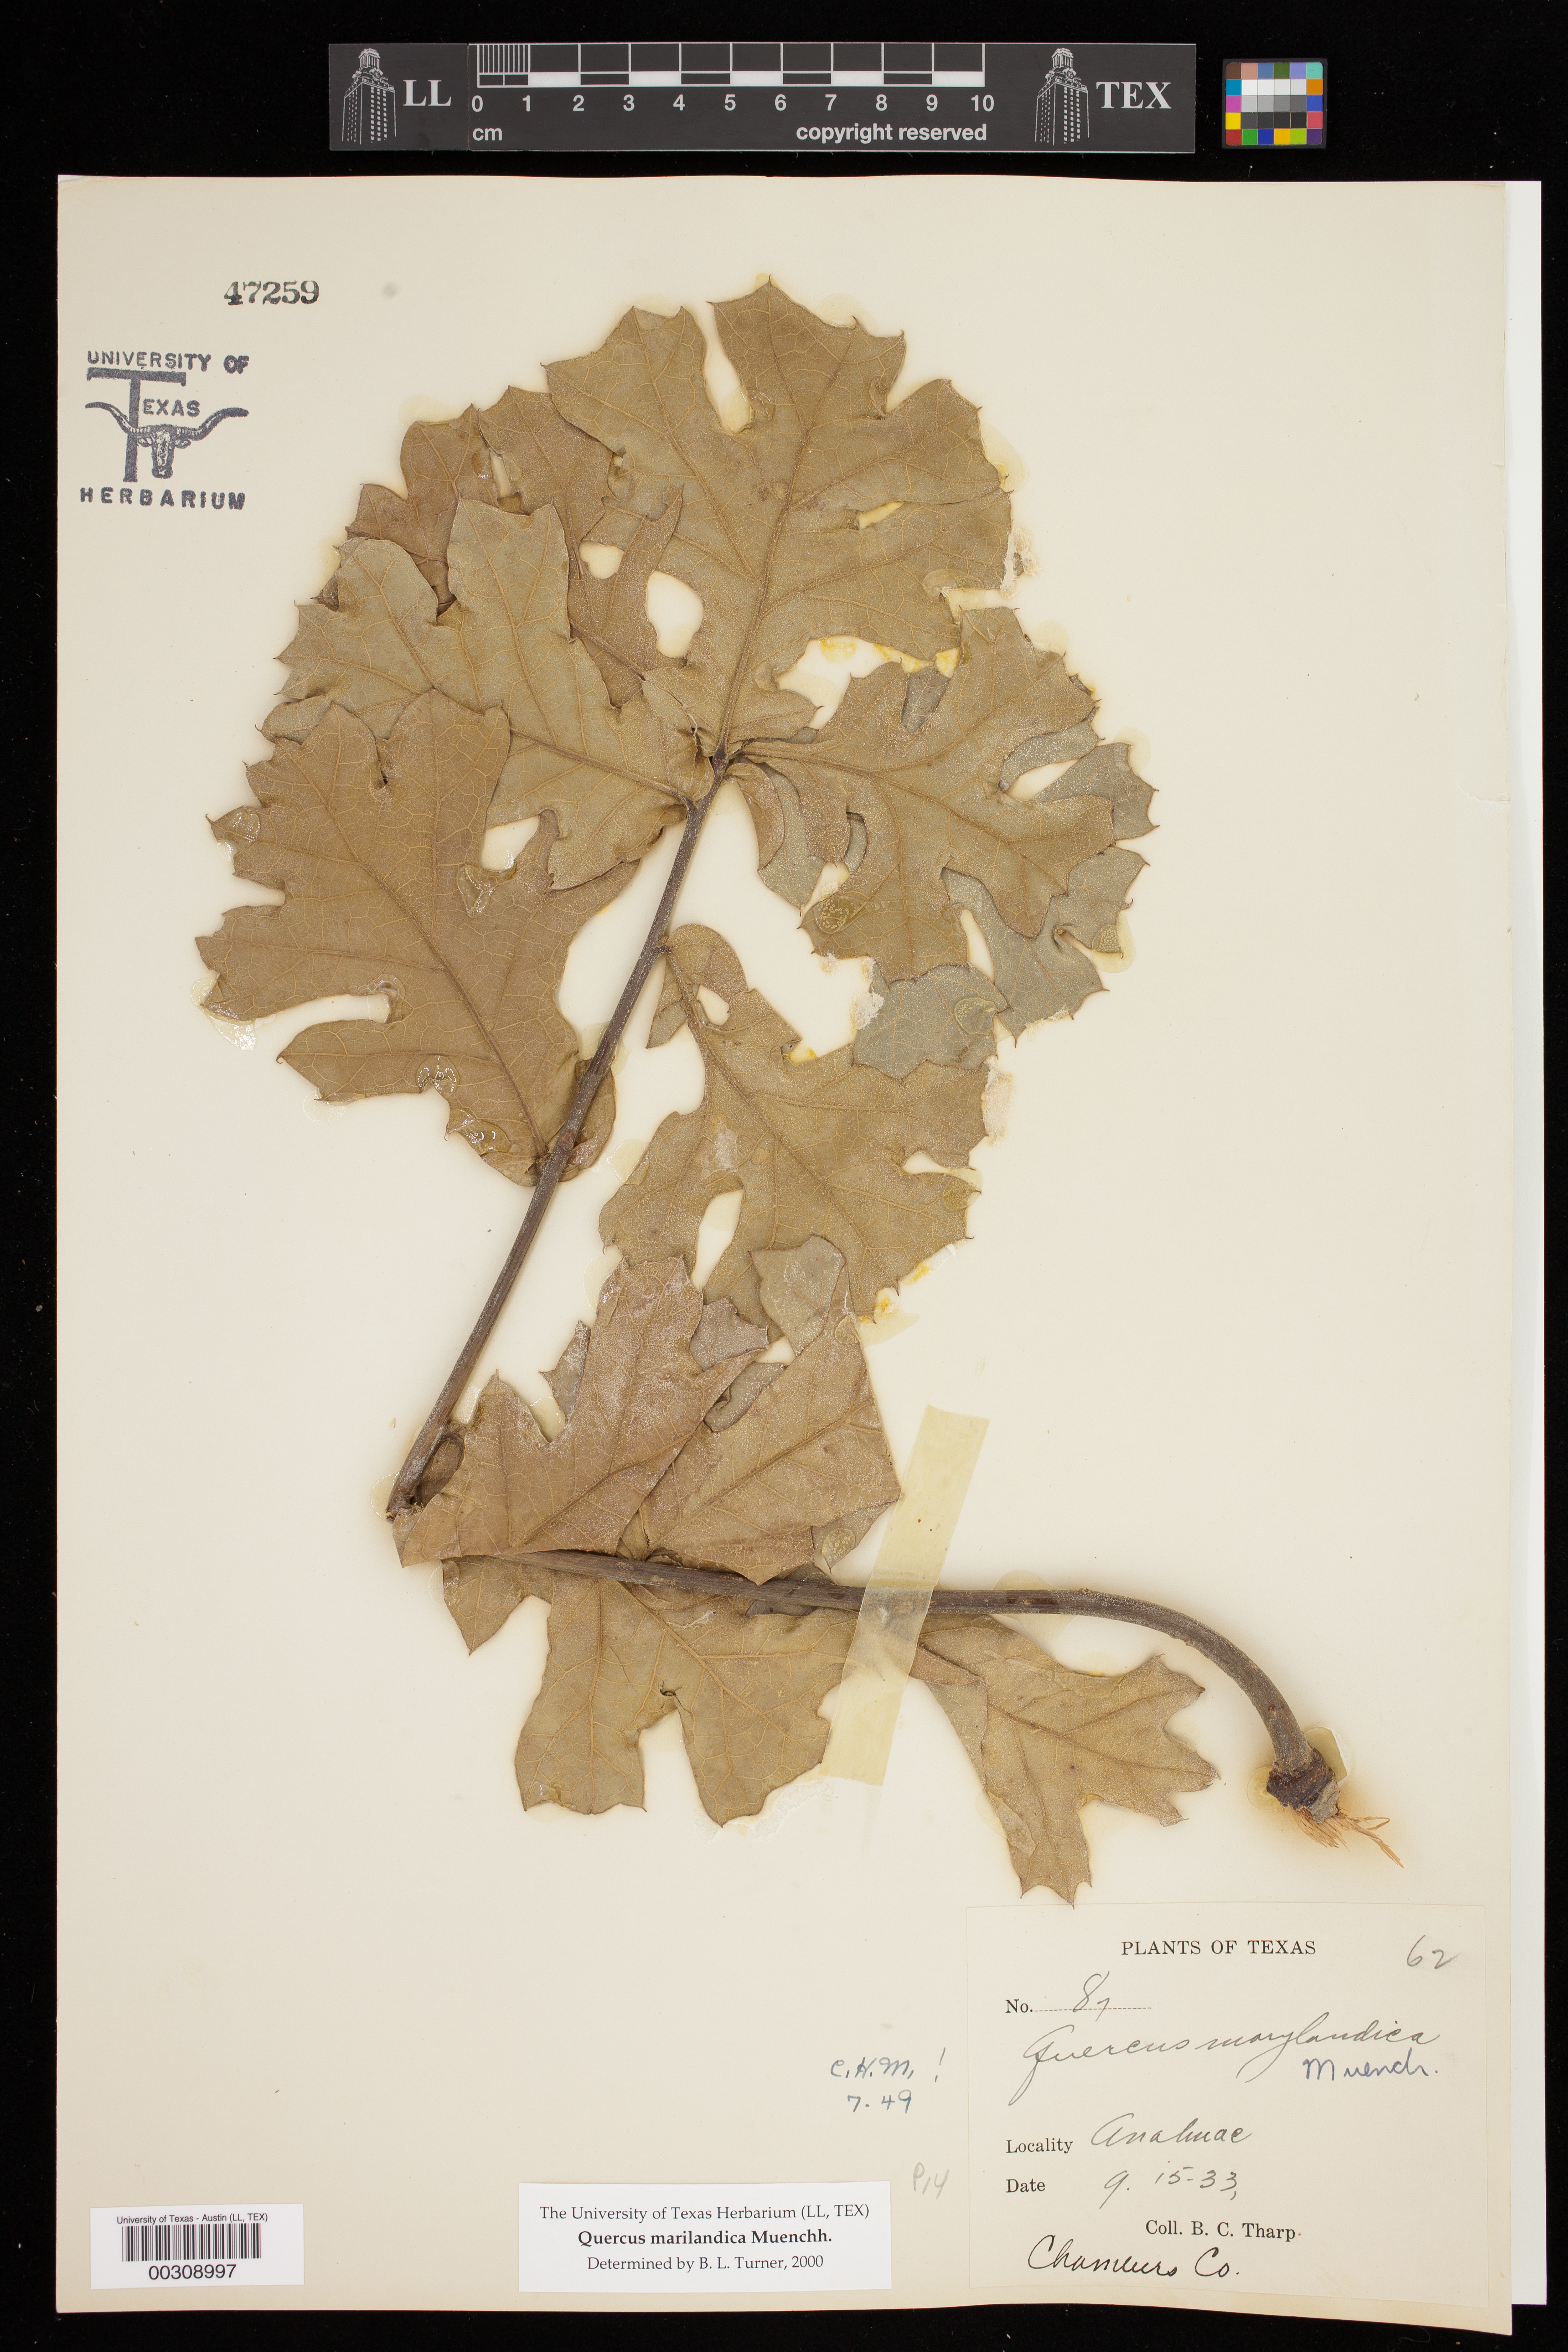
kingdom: Plantae
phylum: Tracheophyta
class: Magnoliopsida
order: Fagales
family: Fagaceae
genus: Quercus
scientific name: Quercus marilandica
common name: Blackjack oak
